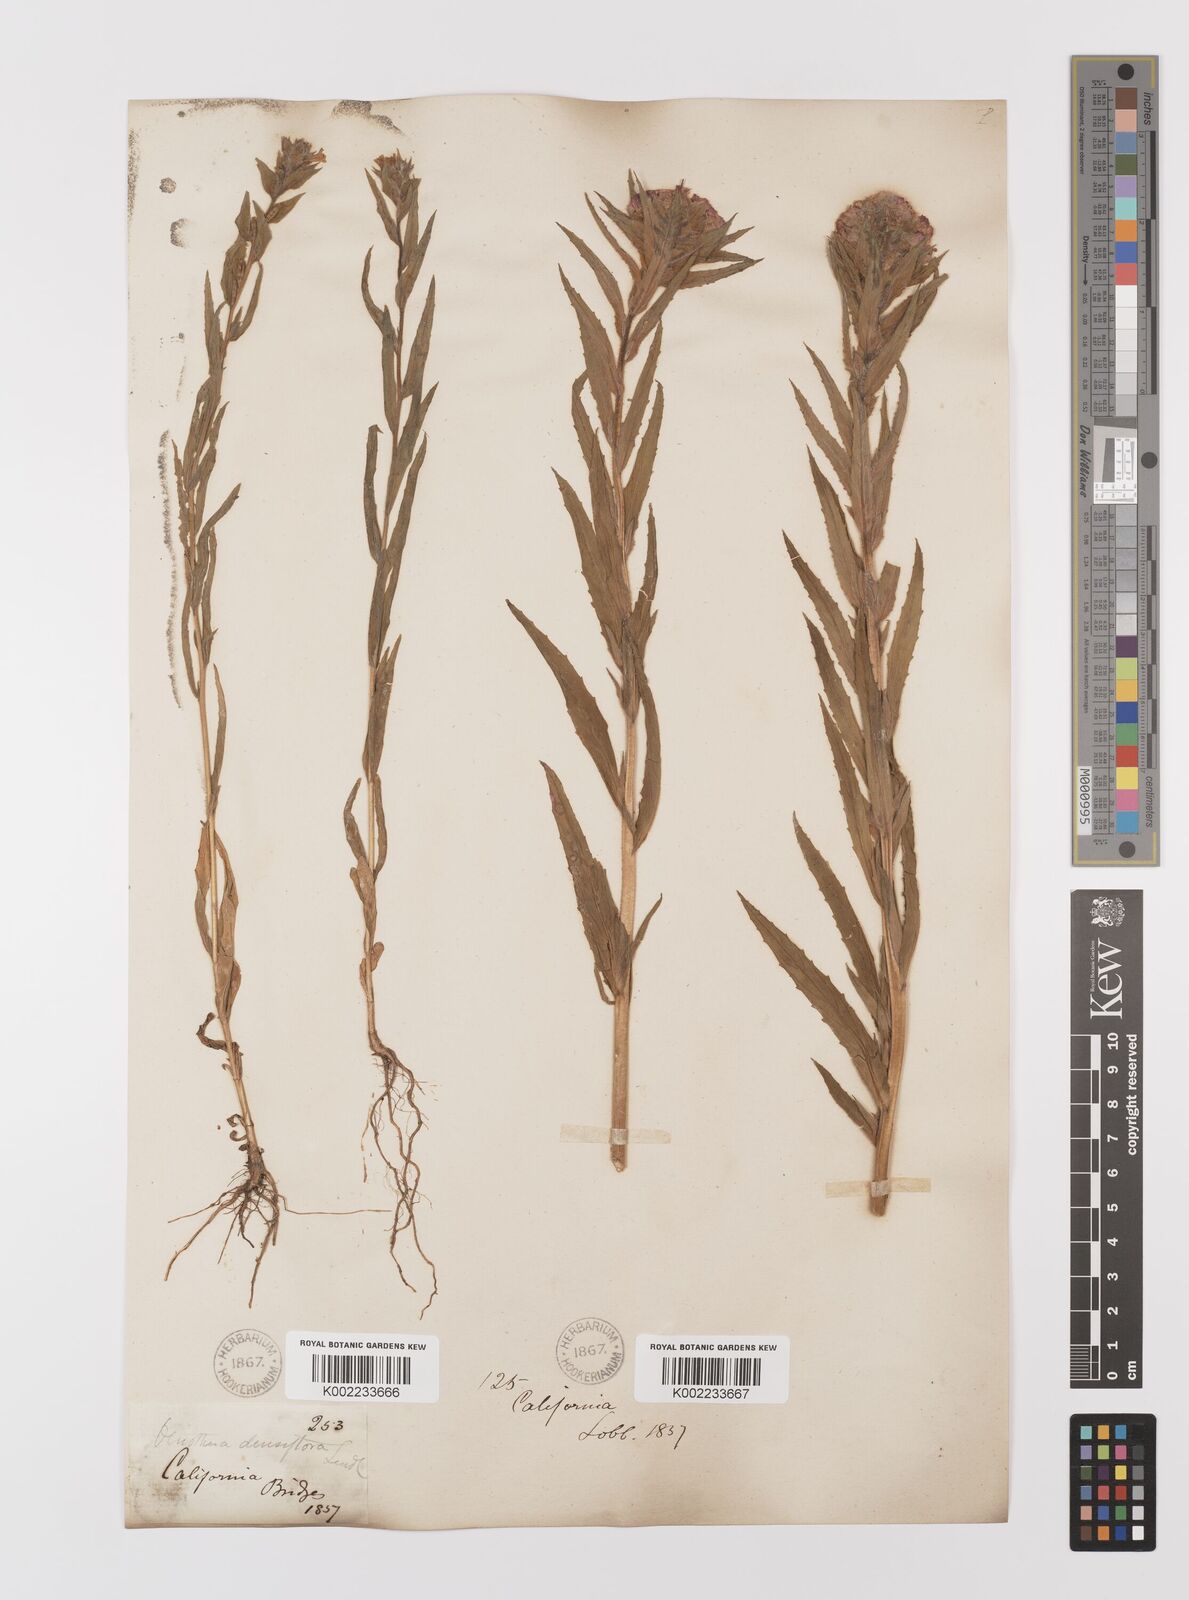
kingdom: Plantae
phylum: Tracheophyta
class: Magnoliopsida
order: Myrtales
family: Onagraceae
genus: Epilobium
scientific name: Epilobium densiflorum
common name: Dense spike-primrose
